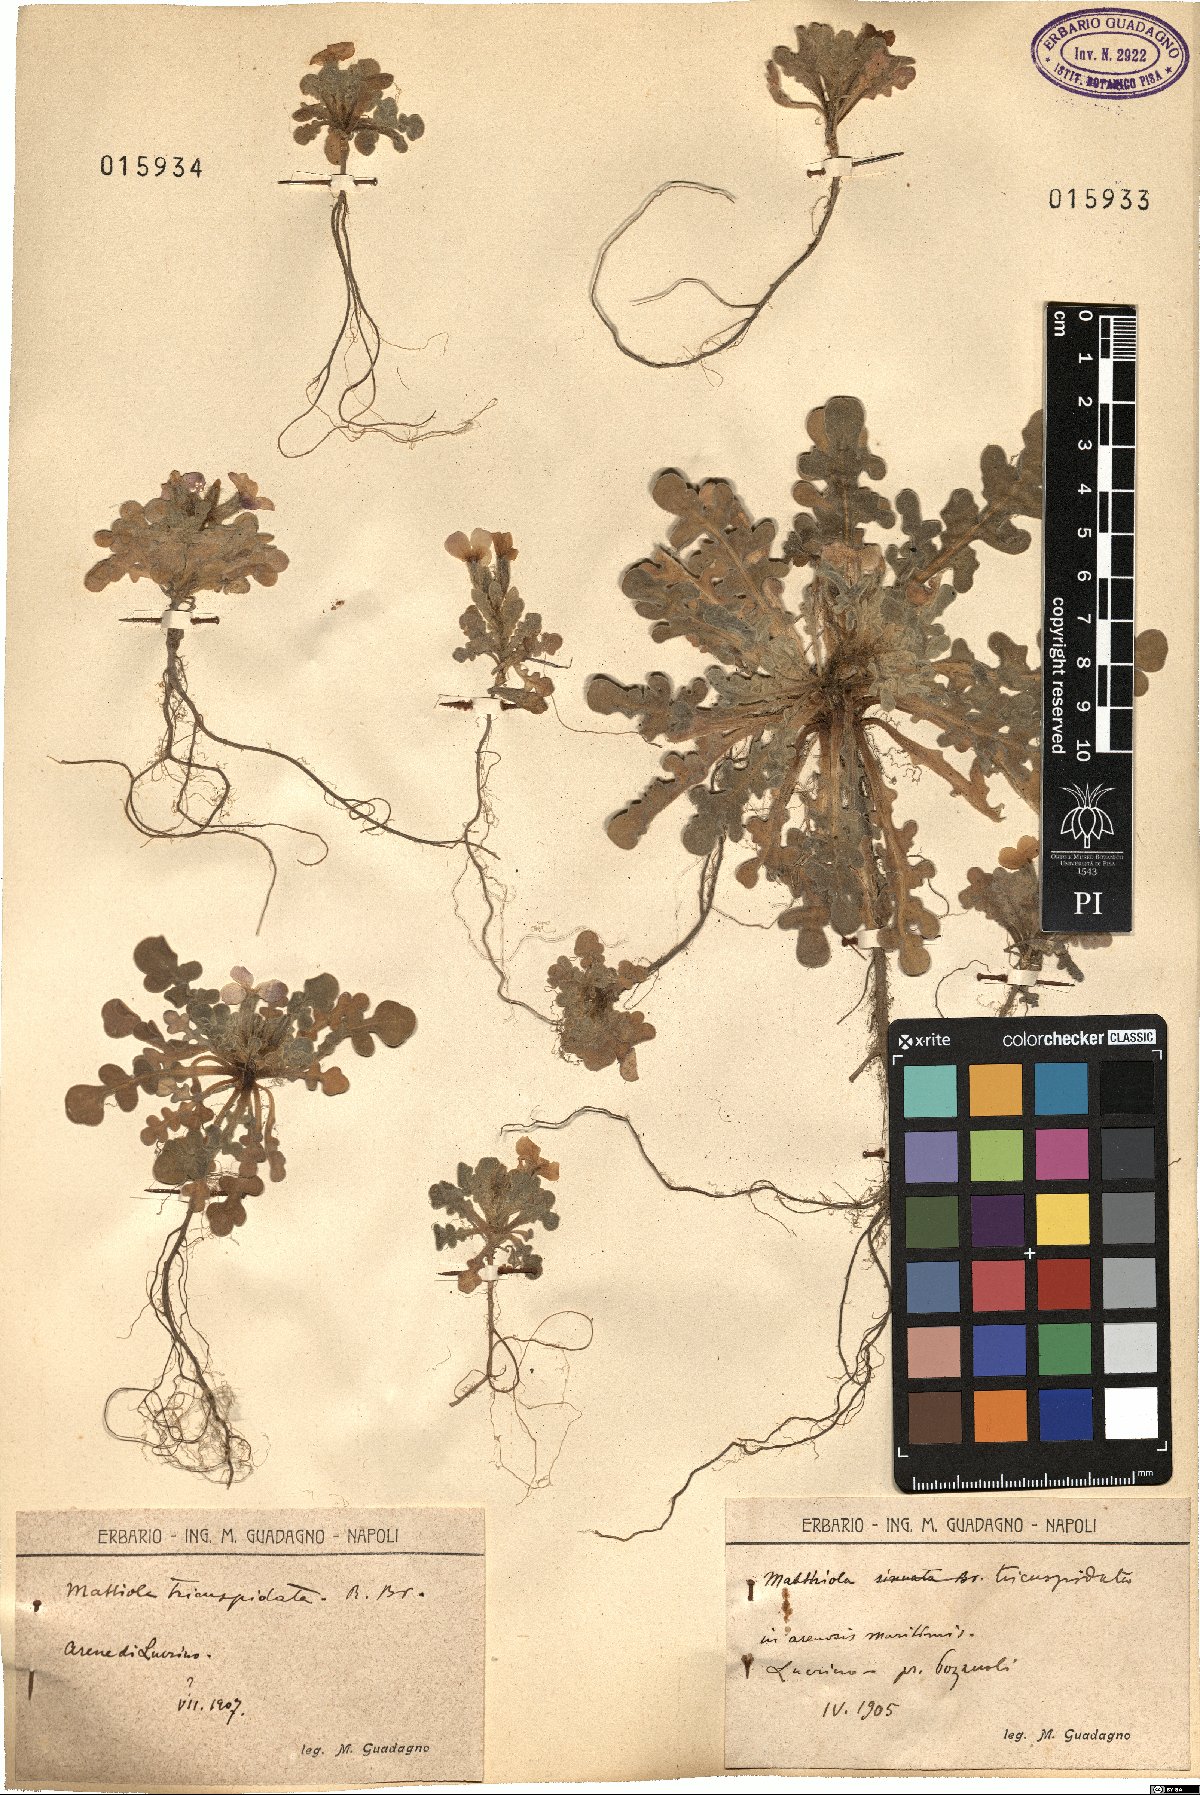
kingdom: Plantae
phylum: Tracheophyta
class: Magnoliopsida
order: Brassicales
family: Brassicaceae
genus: Matthiola
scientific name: Matthiola tricuspidata
